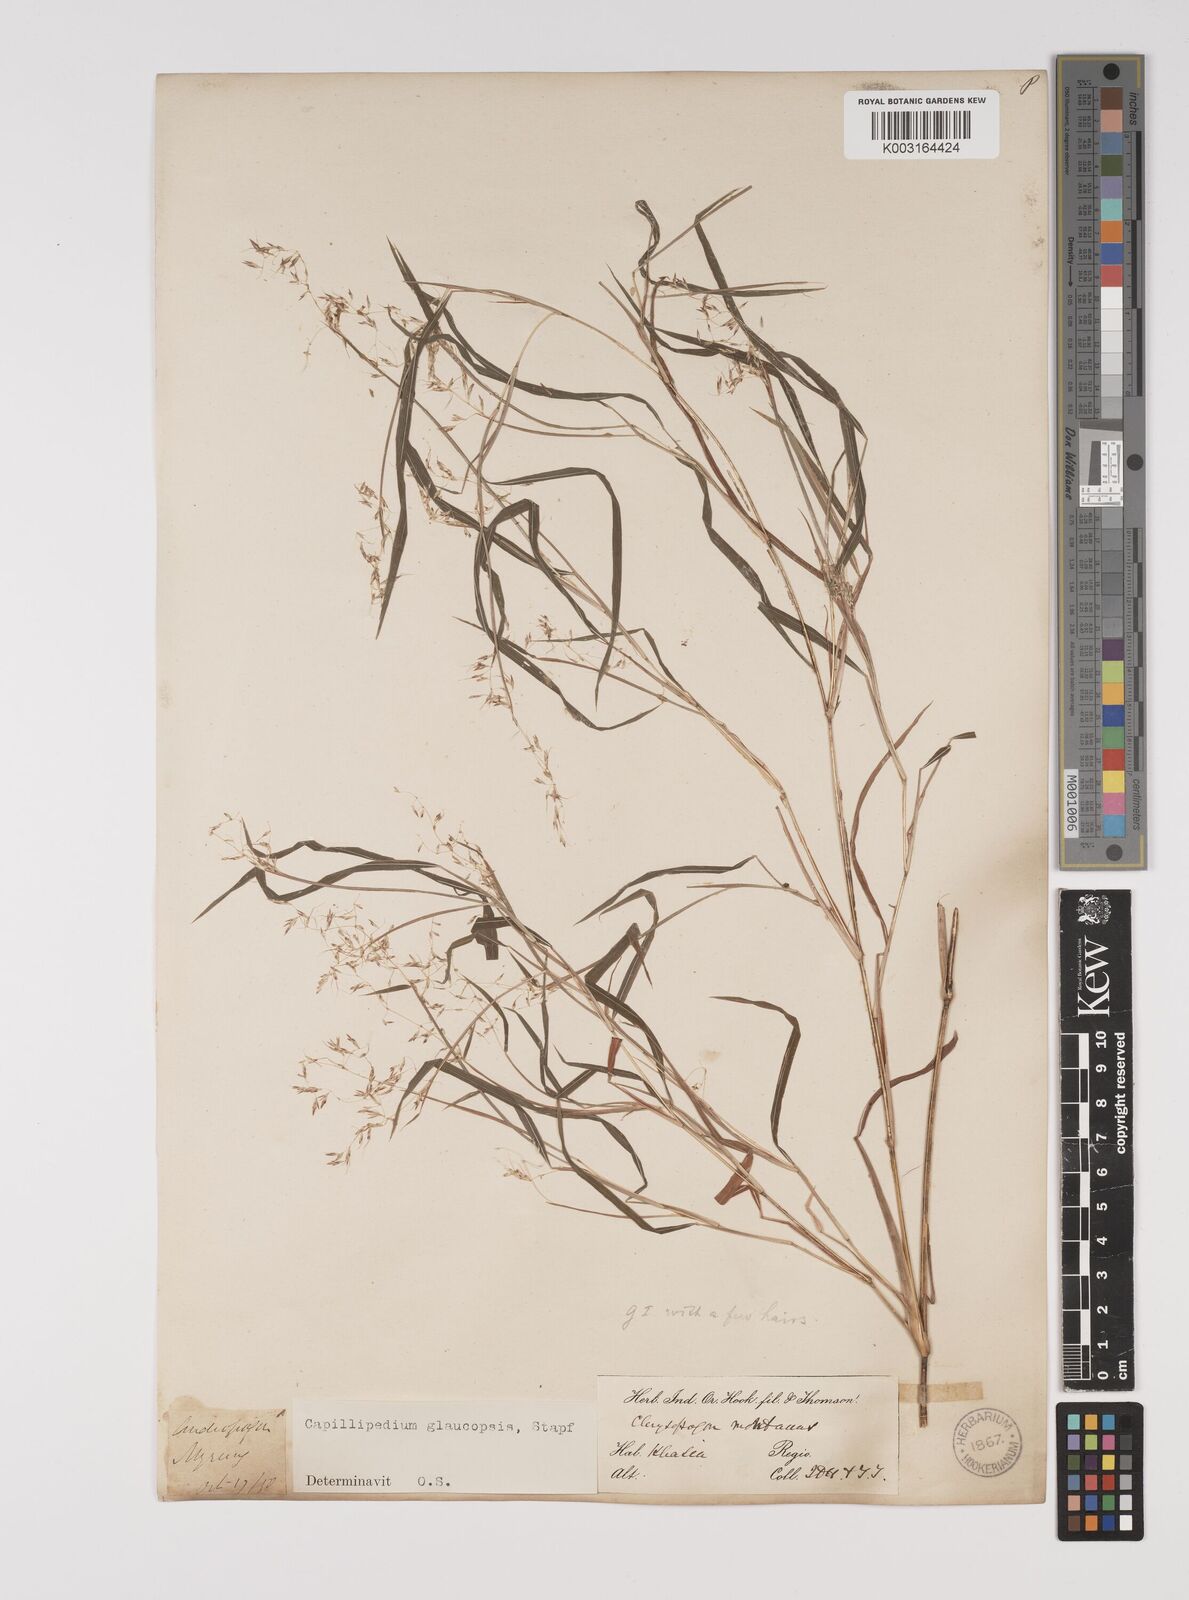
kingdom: Plantae
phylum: Tracheophyta
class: Liliopsida
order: Poales
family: Poaceae
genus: Capillipedium
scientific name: Capillipedium assimile
